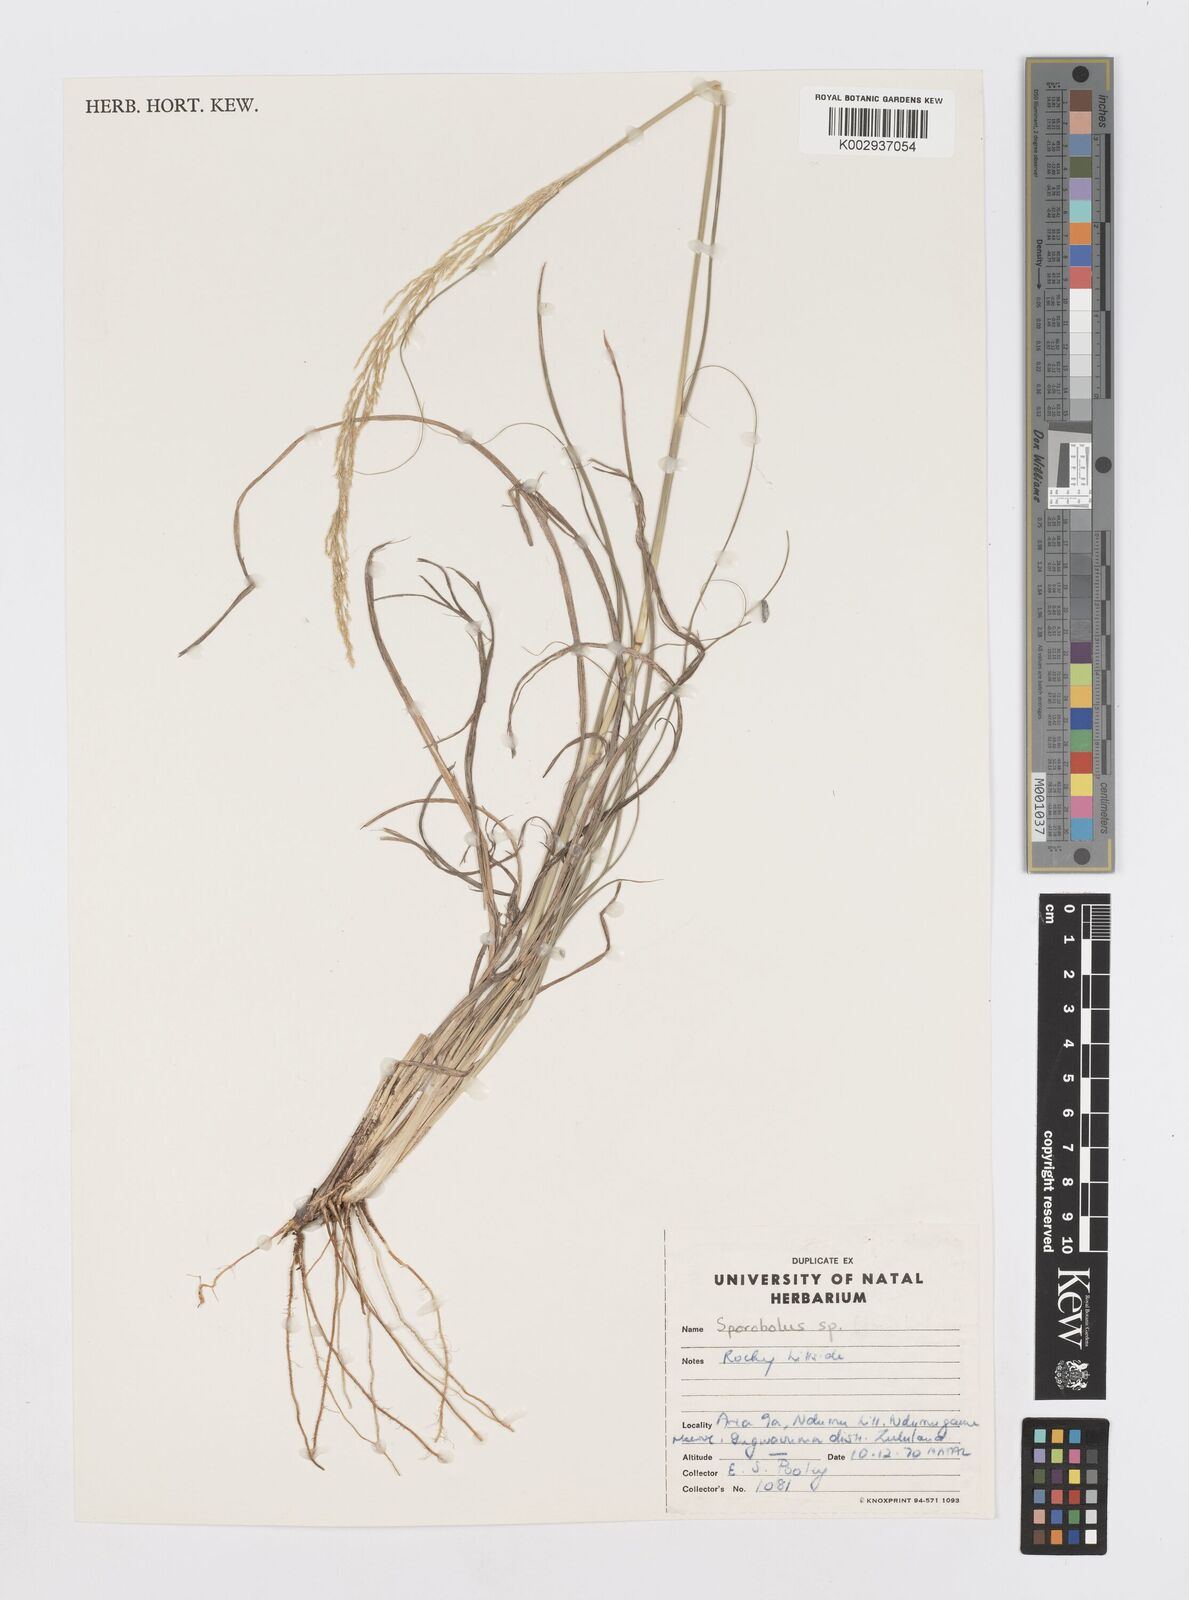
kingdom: Plantae
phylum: Tracheophyta
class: Liliopsida
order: Poales
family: Poaceae
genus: Sporobolus
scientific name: Sporobolus
